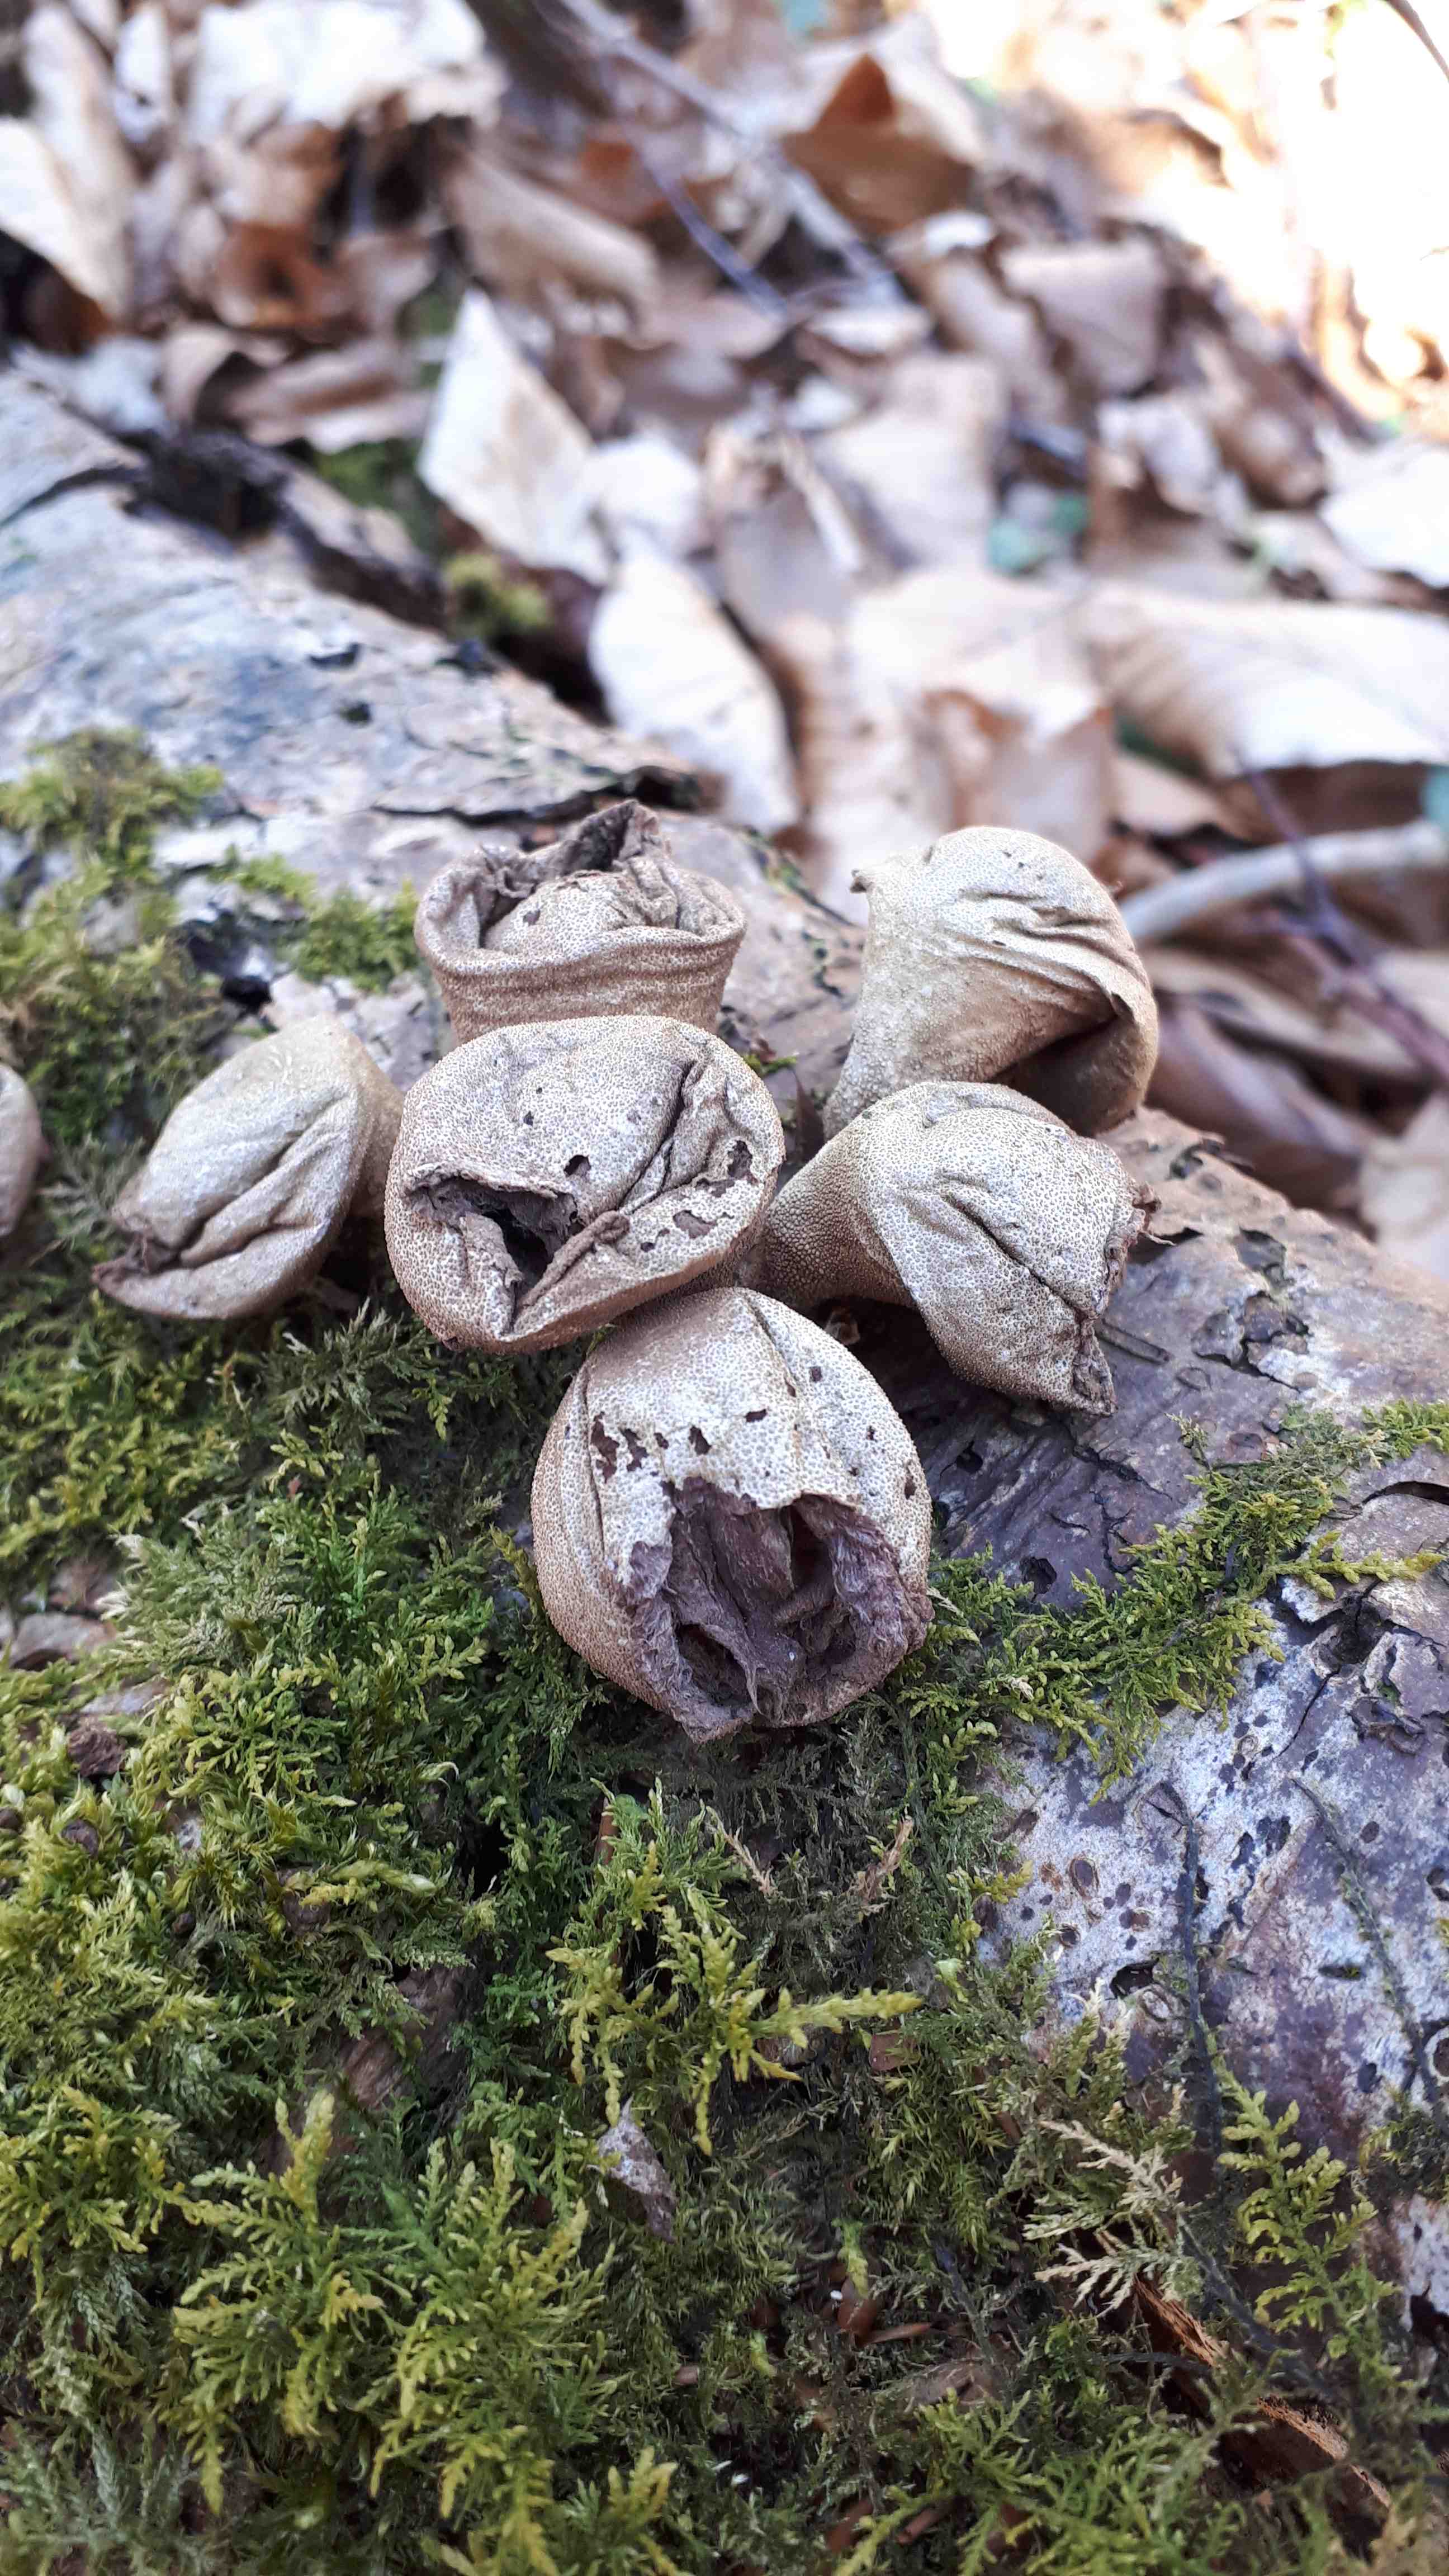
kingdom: Fungi
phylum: Basidiomycota
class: Agaricomycetes
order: Agaricales
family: Lycoperdaceae
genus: Apioperdon
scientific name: Apioperdon pyriforme
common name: pære-støvbold
